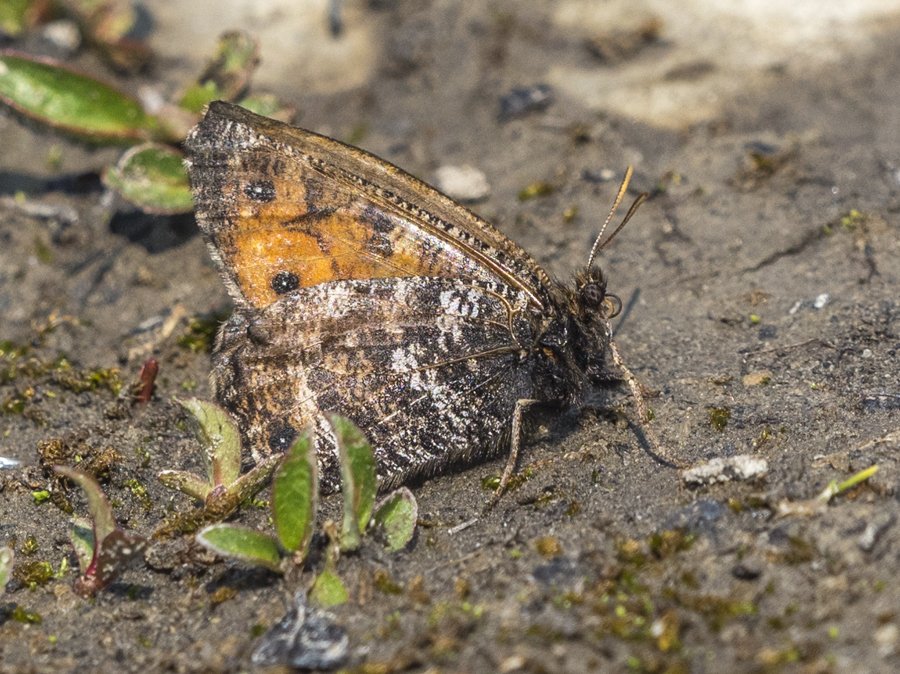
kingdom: Animalia
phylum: Arthropoda
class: Insecta
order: Lepidoptera
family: Nymphalidae
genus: Oeneis
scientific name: Oeneis chryxus
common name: Chryxus Arctic
